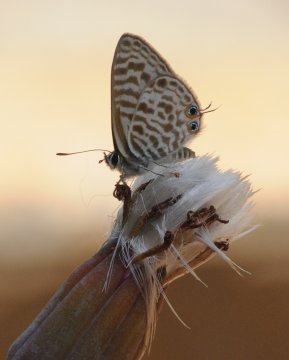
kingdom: Animalia
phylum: Arthropoda
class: Insecta
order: Lepidoptera
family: Lycaenidae
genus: Leptotes
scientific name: Leptotes pirithous
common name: Lang's Short-tailed Blue
